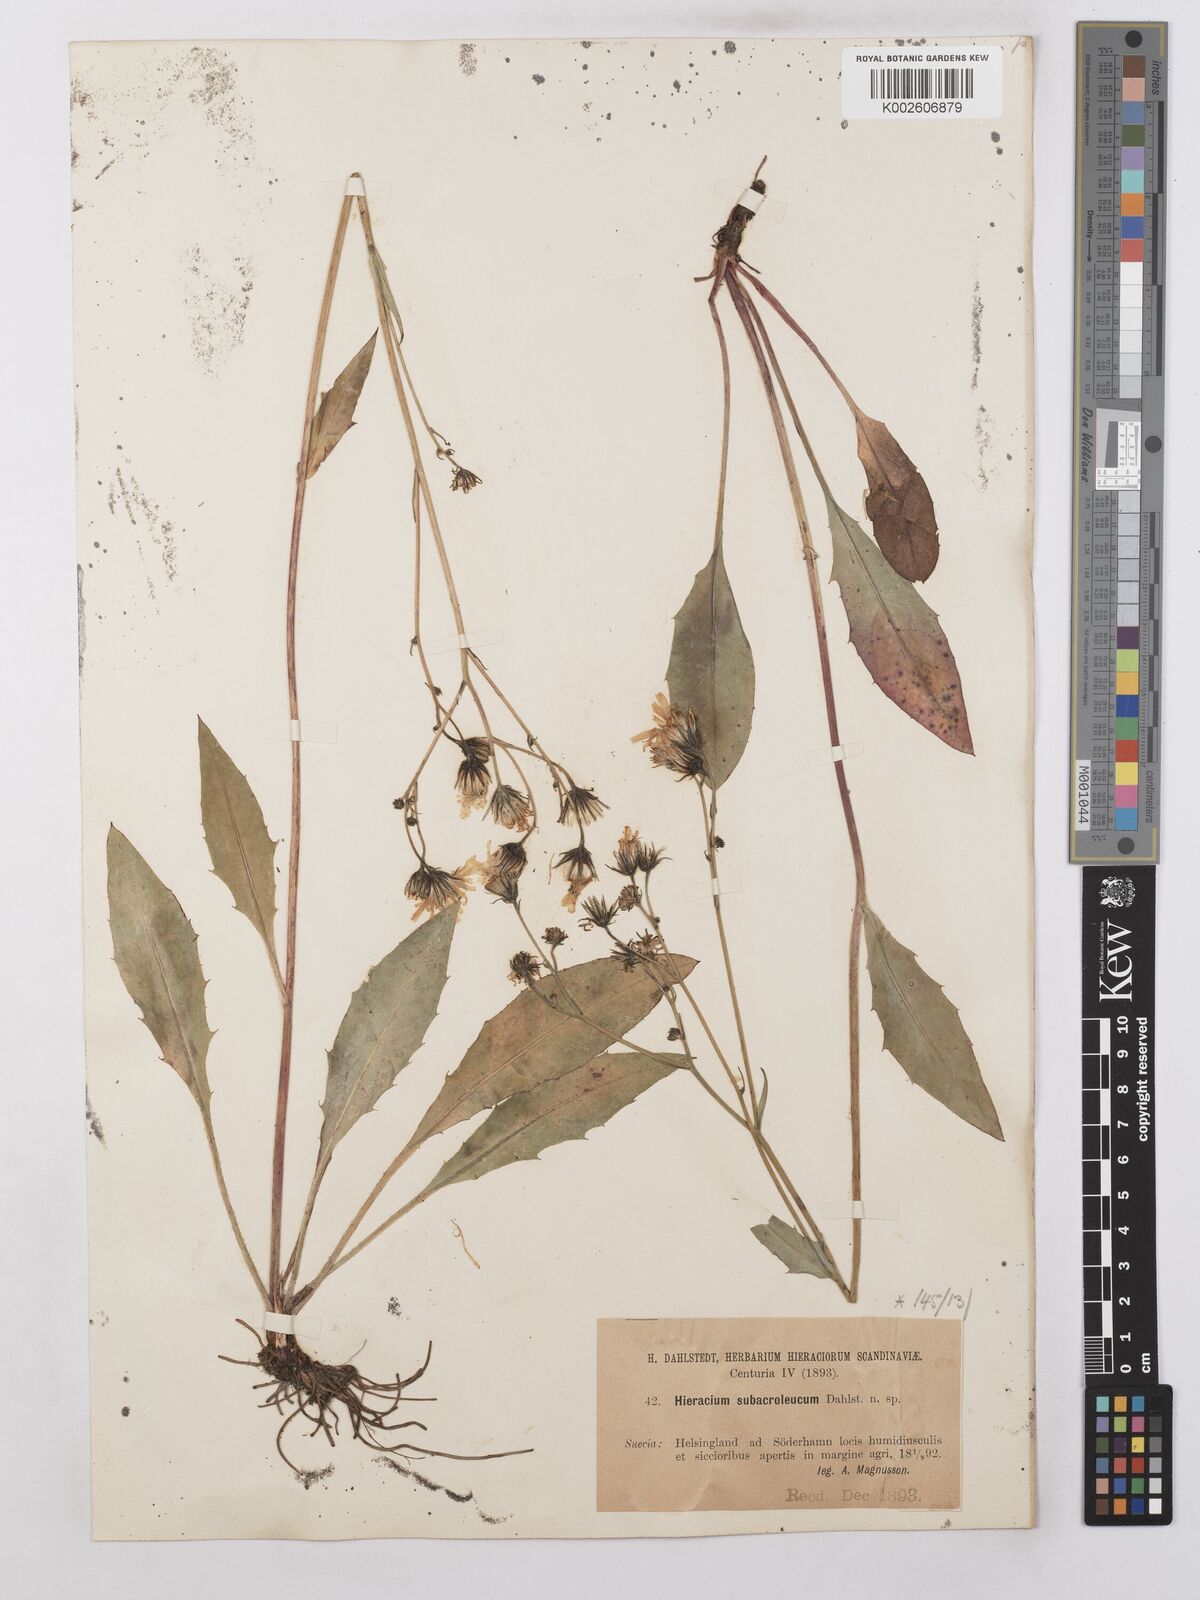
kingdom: Plantae
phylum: Tracheophyta
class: Magnoliopsida
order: Asterales
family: Asteraceae
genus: Hieracium
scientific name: Hieracium levicaule
